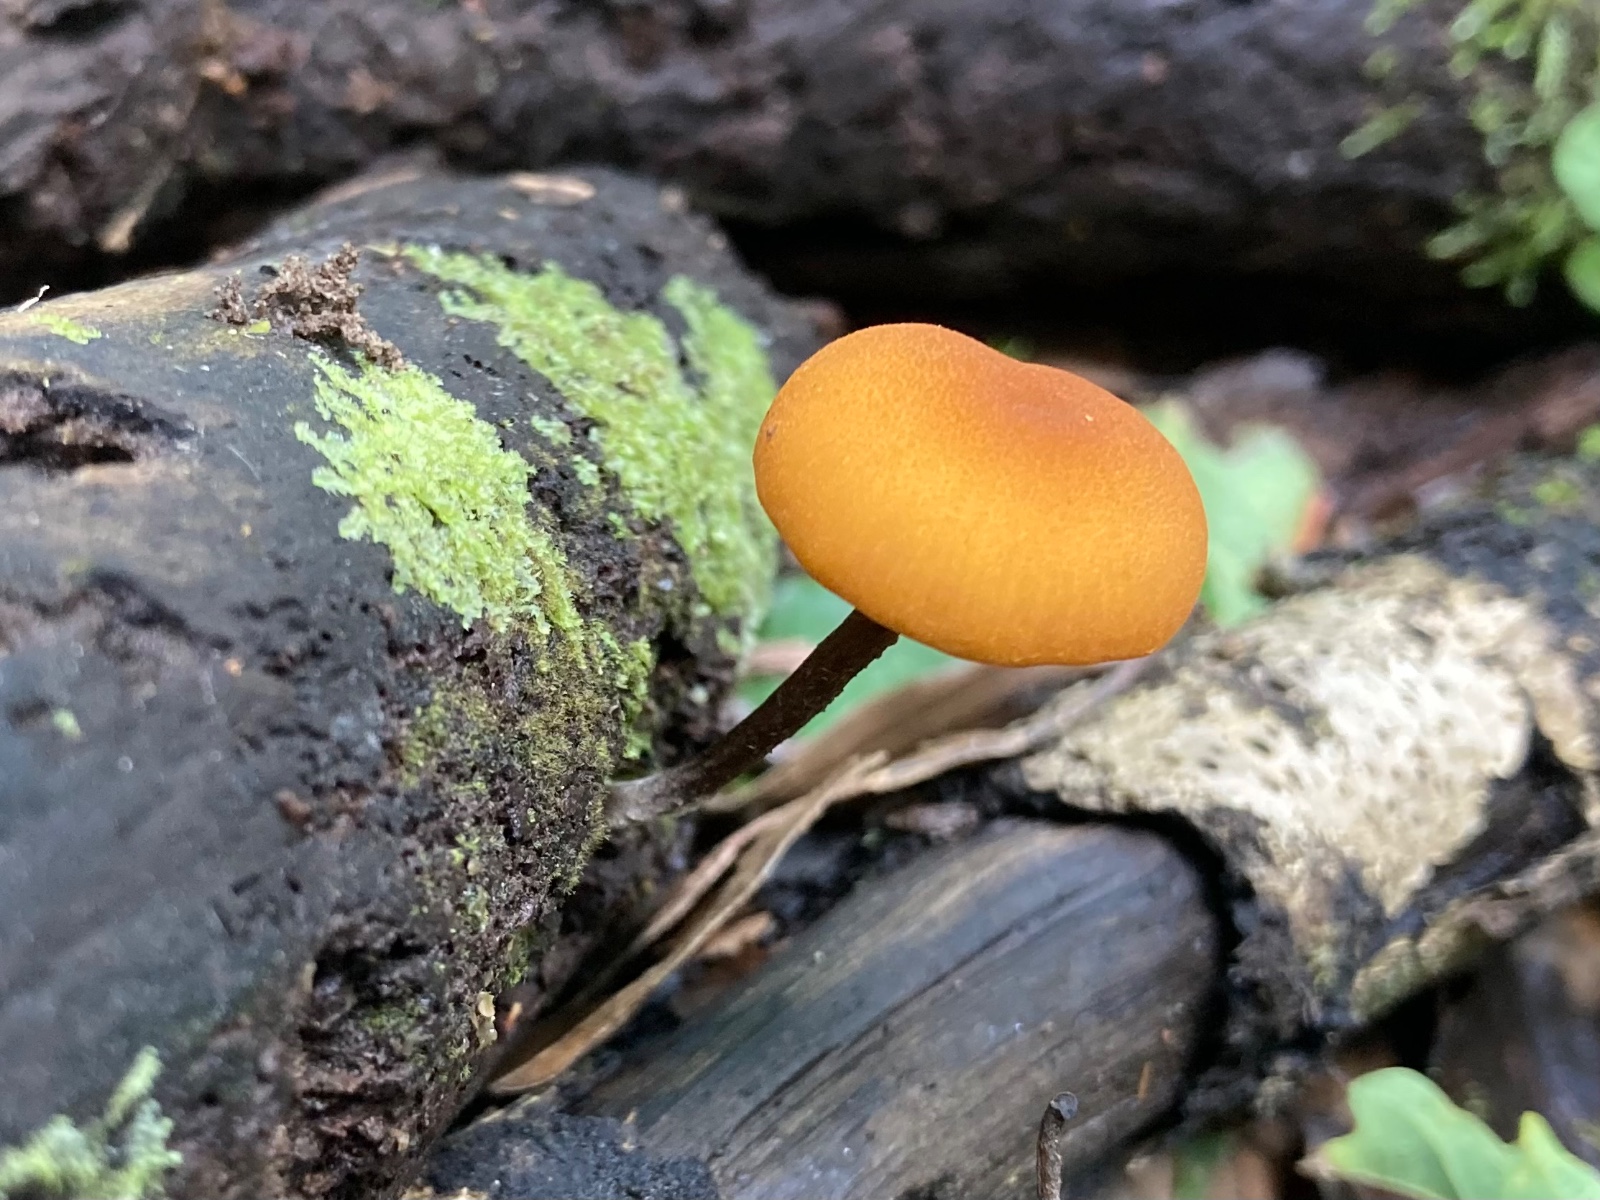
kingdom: Fungi
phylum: Basidiomycota
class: Agaricomycetes
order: Agaricales
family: Tubariaceae
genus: Flammulaster
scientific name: Flammulaster limulatus
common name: mørkstokket grynskælhat
